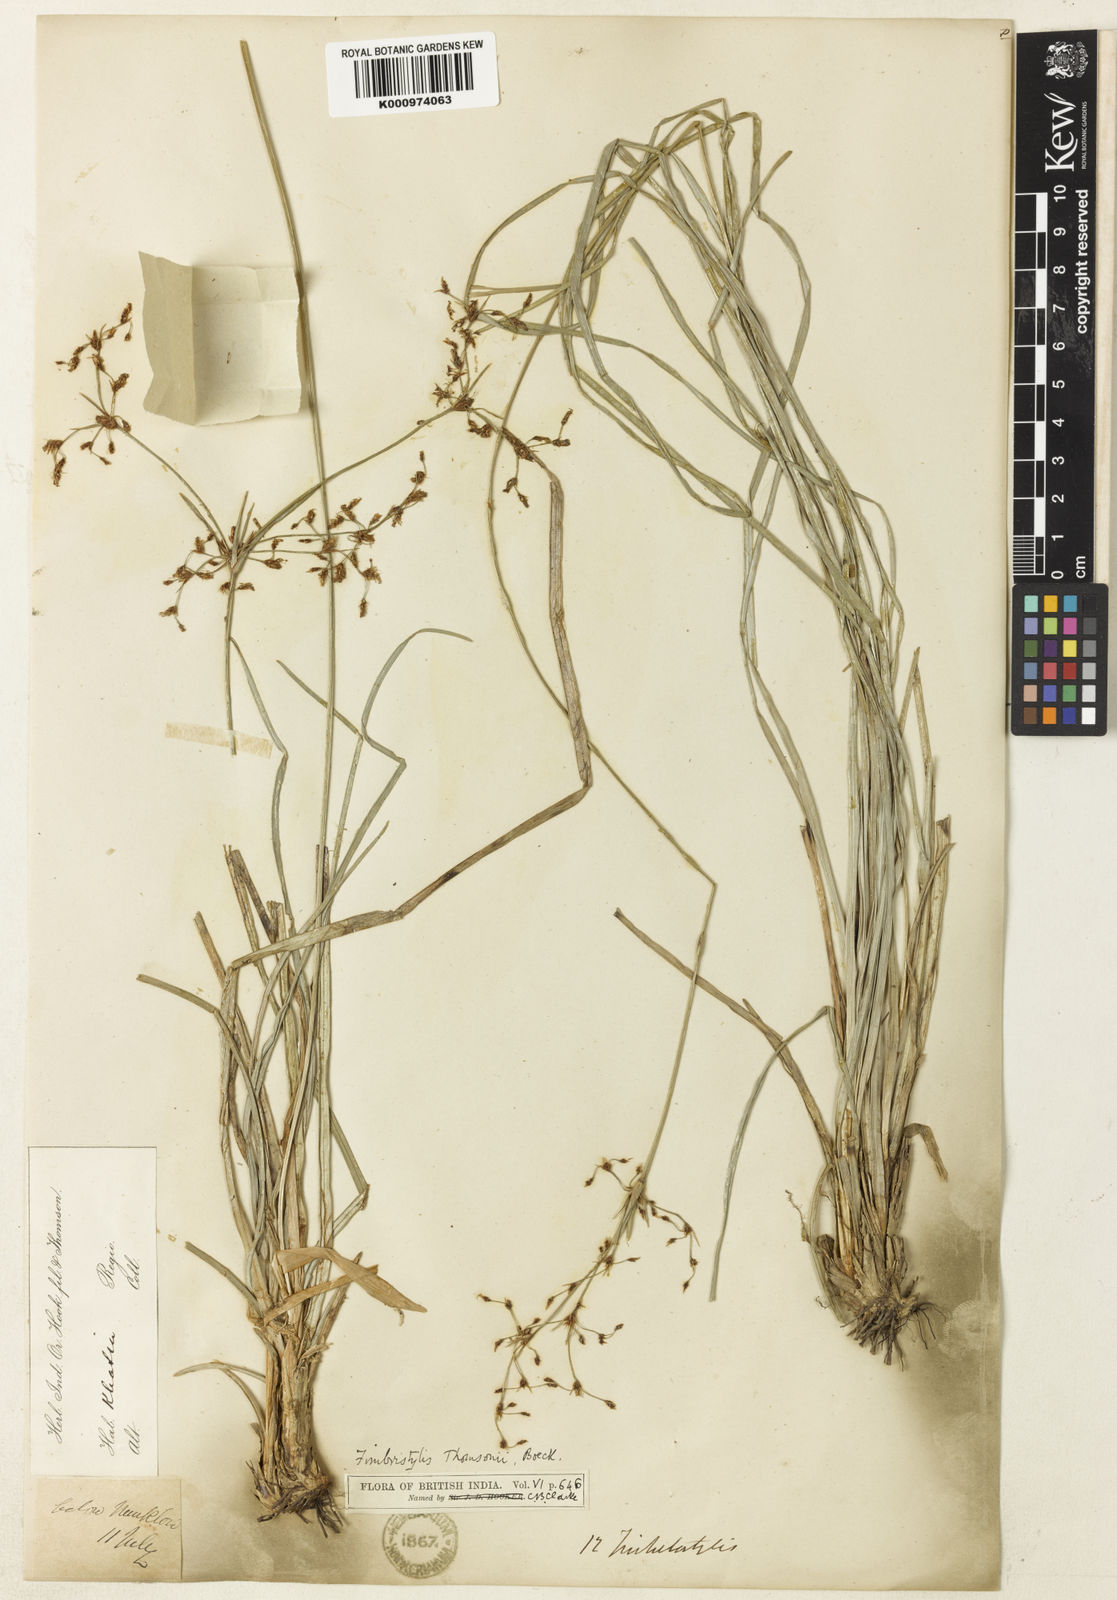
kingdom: Plantae
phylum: Tracheophyta
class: Liliopsida
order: Poales
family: Cyperaceae
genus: Fimbristylis
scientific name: Fimbristylis thomsonii
